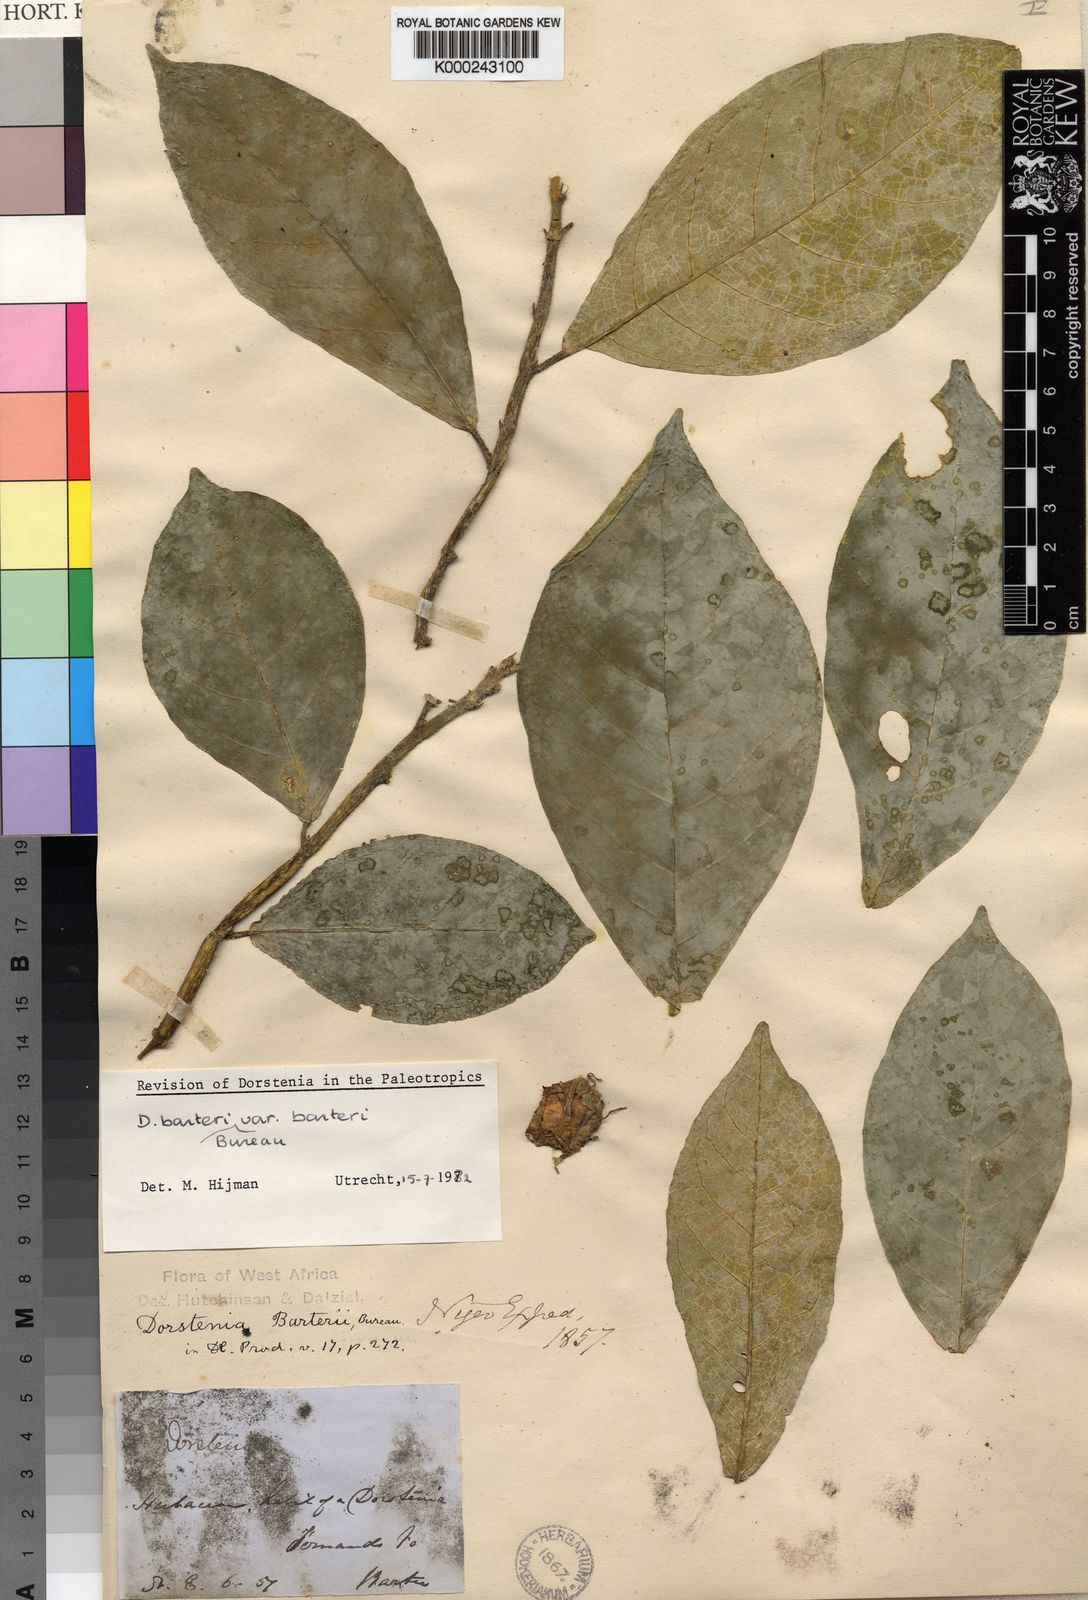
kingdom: Plantae
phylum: Tracheophyta
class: Magnoliopsida
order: Rosales
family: Moraceae
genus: Dorstenia
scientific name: Dorstenia barteri
